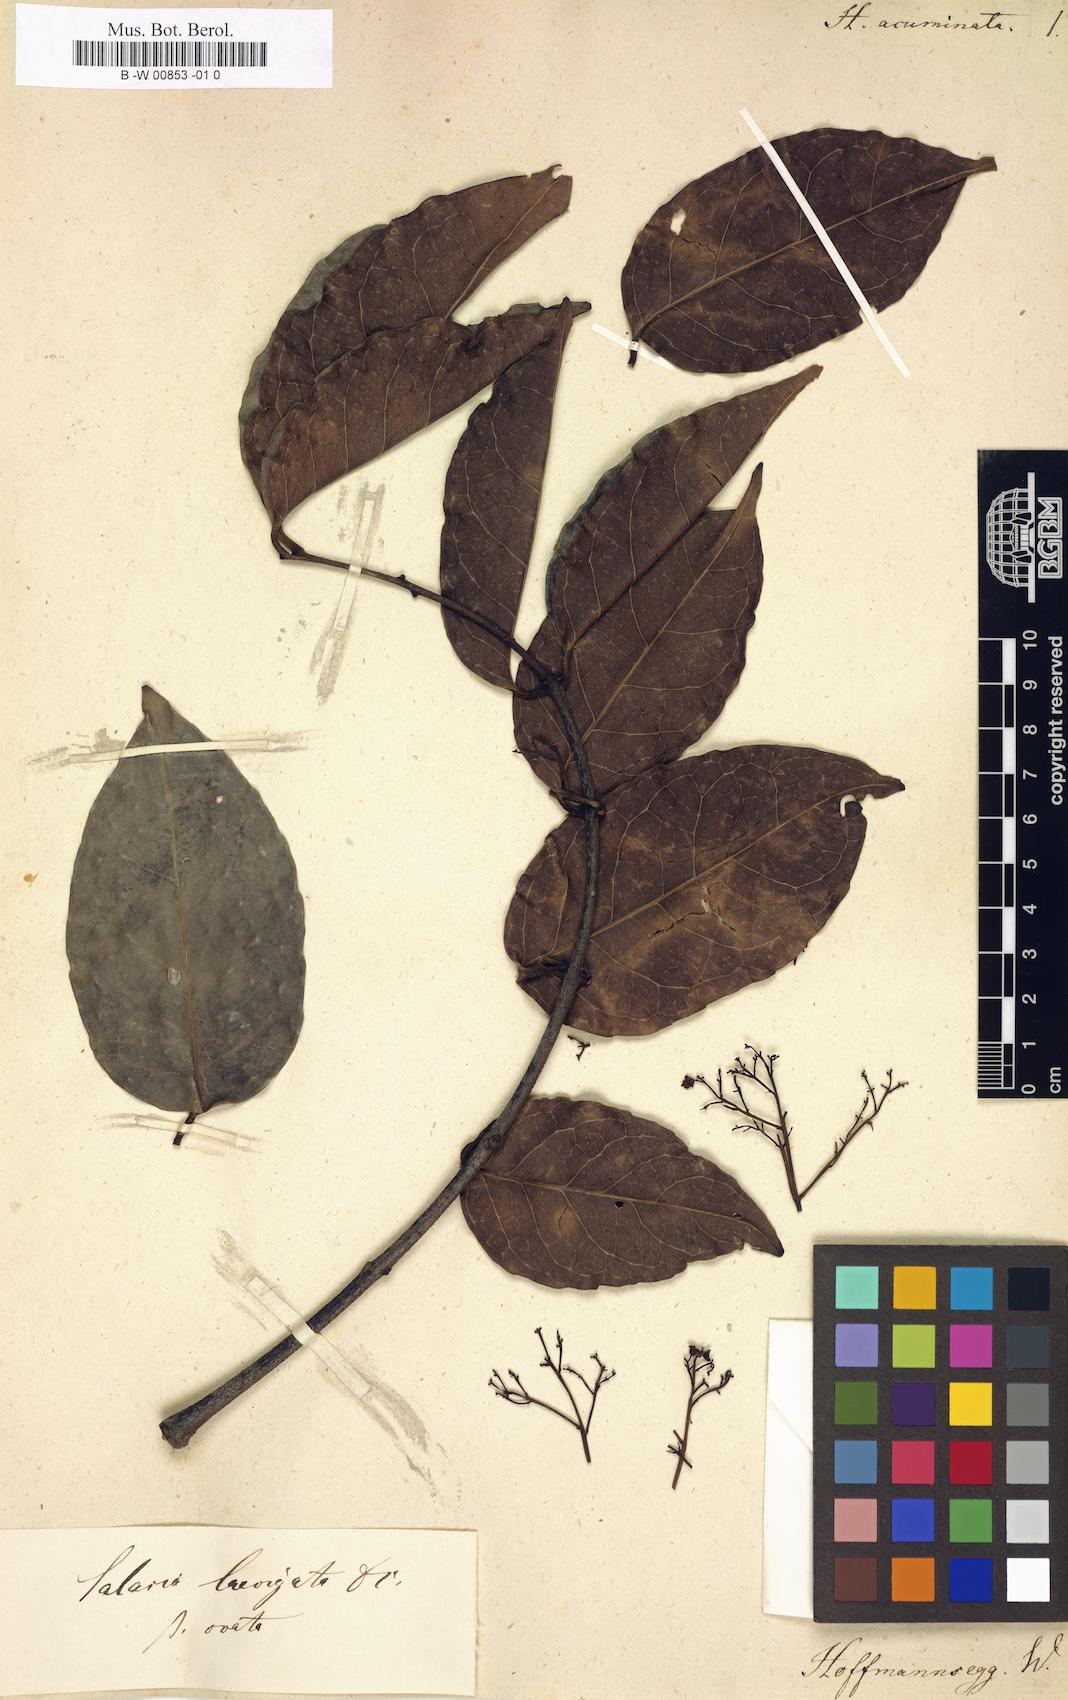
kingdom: Plantae
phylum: Tracheophyta
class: Magnoliopsida
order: Celastrales
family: Celastraceae
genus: Prionostemma
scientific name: Prionostemma aspera
